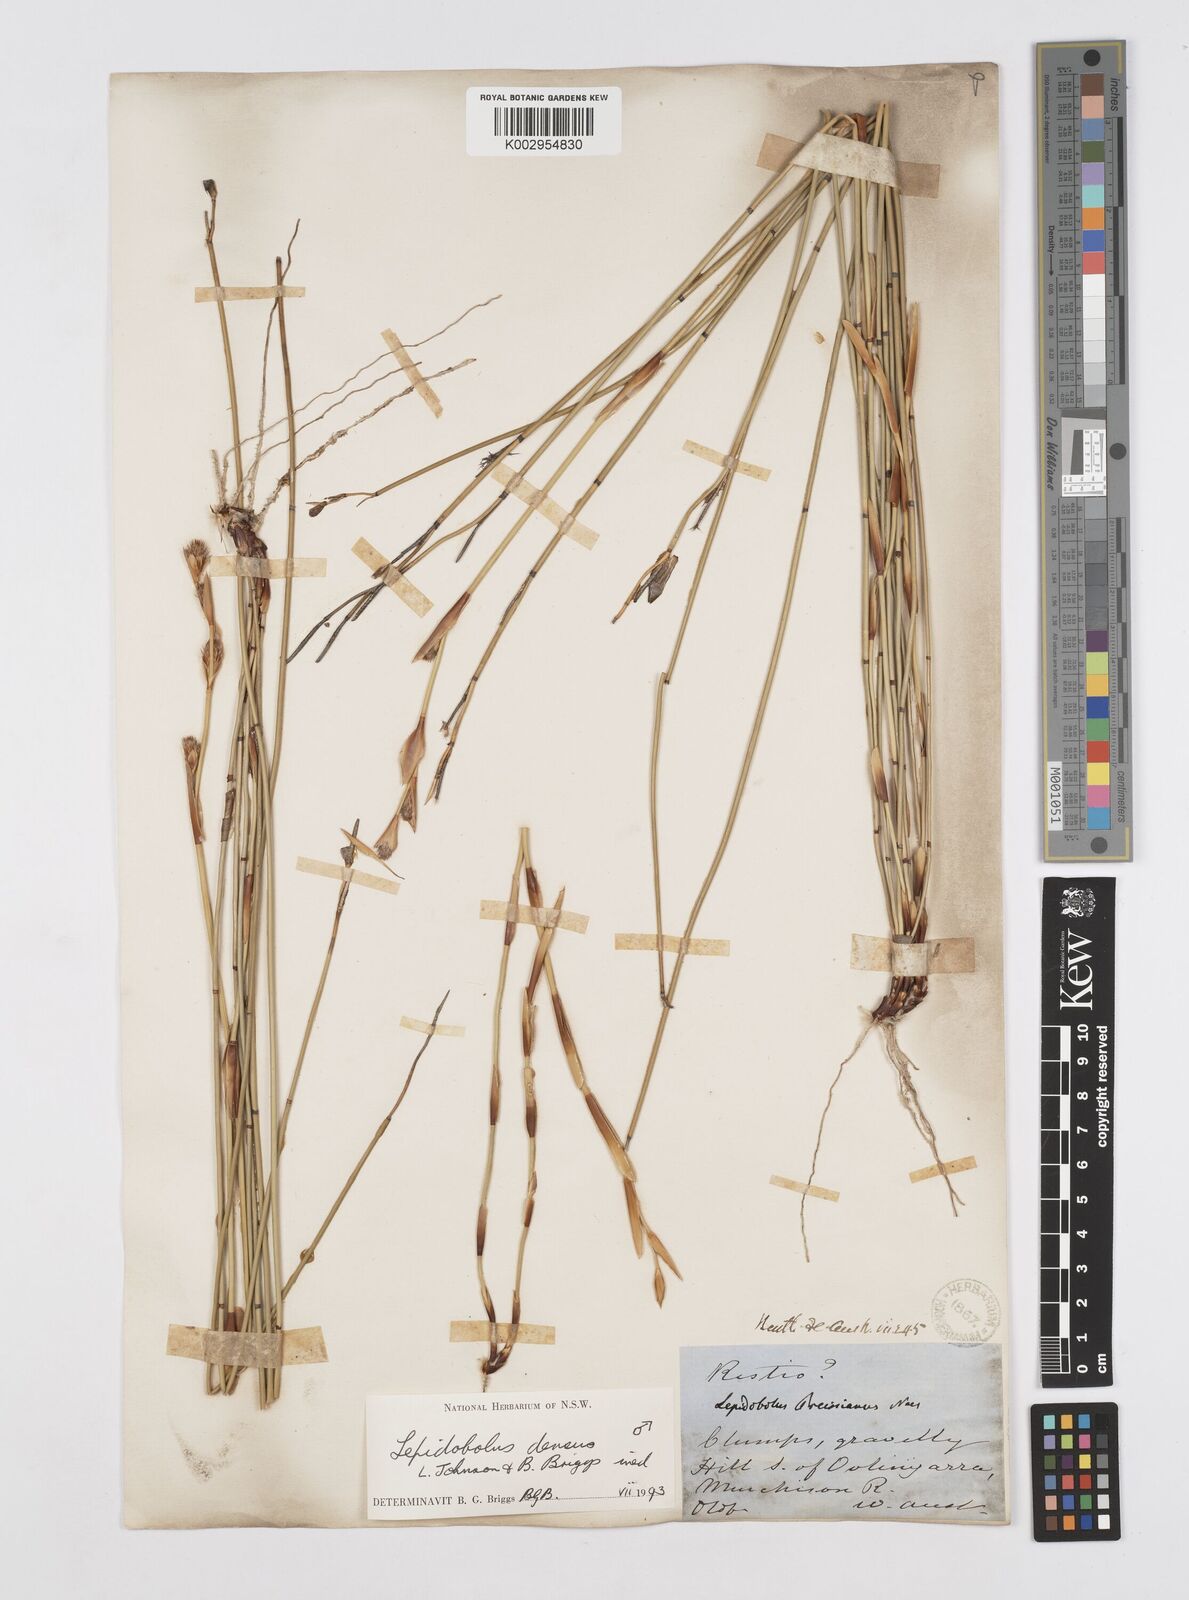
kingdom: Plantae
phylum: Tracheophyta
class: Liliopsida
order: Poales
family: Restionaceae
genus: Lepidobolus
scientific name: Lepidobolus densus
